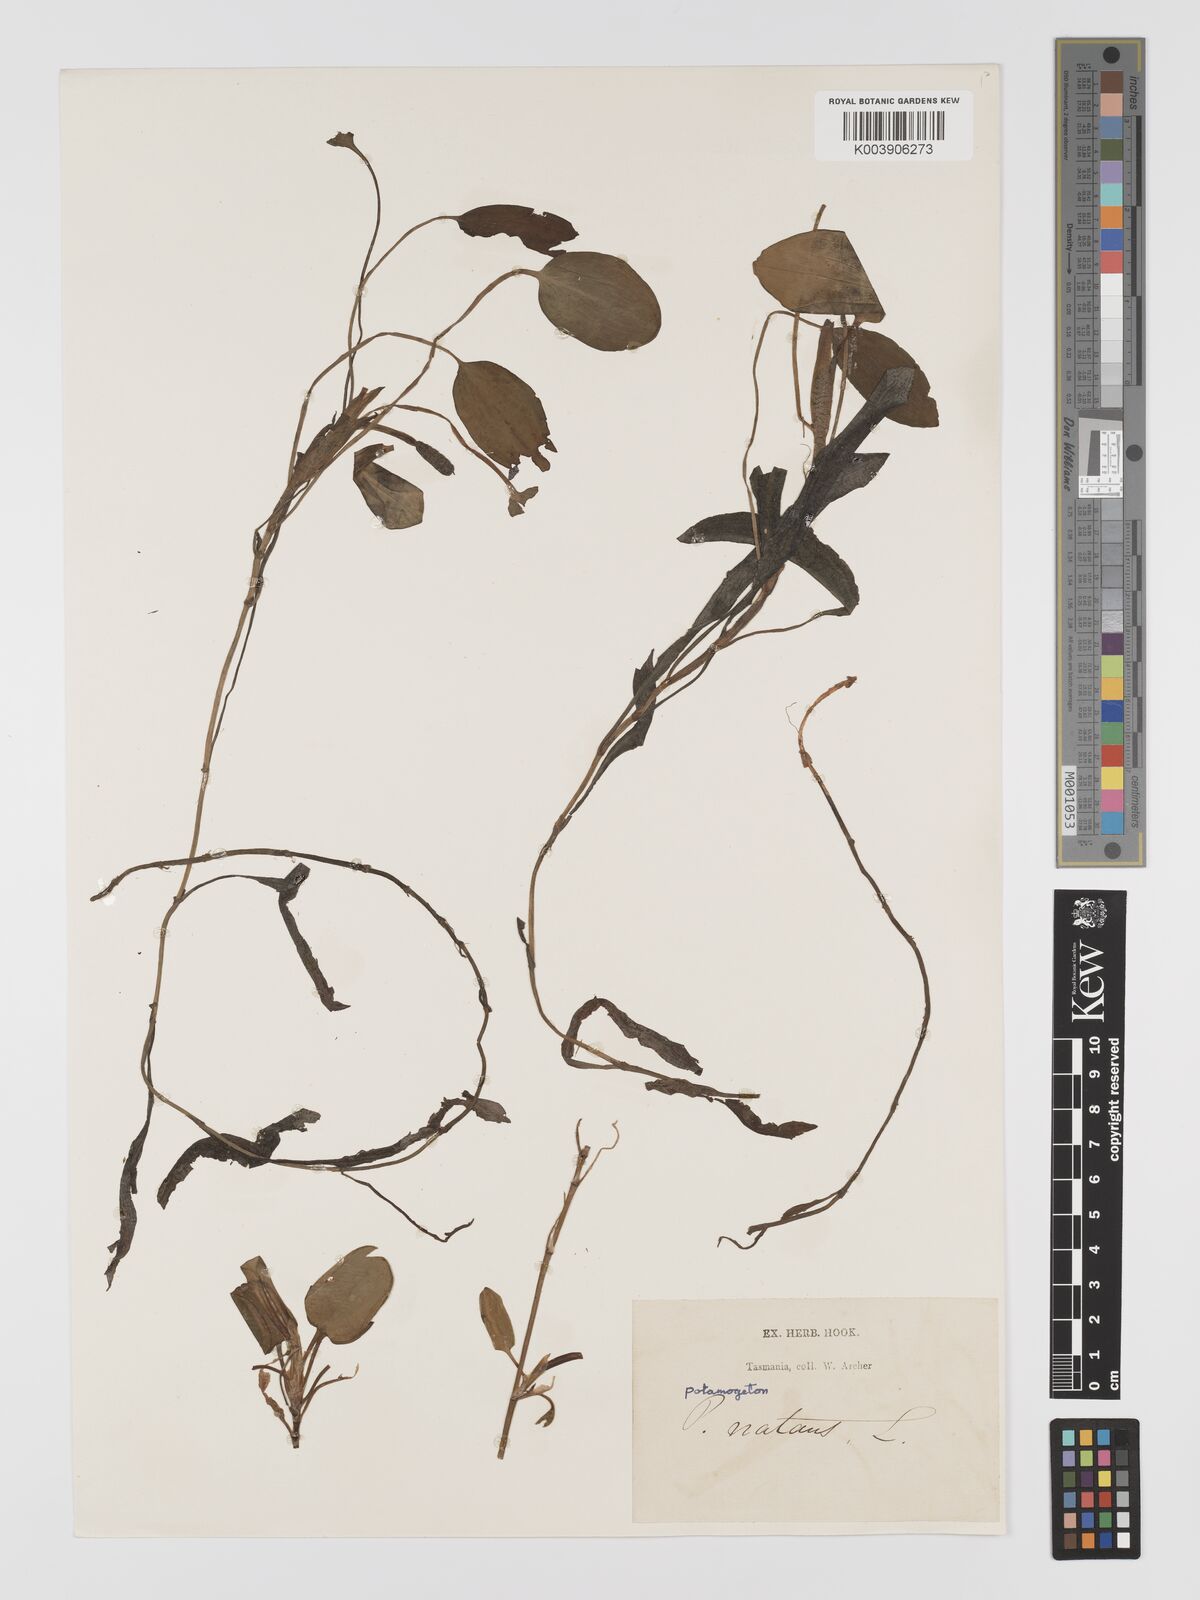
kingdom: Plantae
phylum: Tracheophyta
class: Liliopsida
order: Alismatales
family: Potamogetonaceae
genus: Potamogeton
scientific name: Potamogeton cheesemanii
